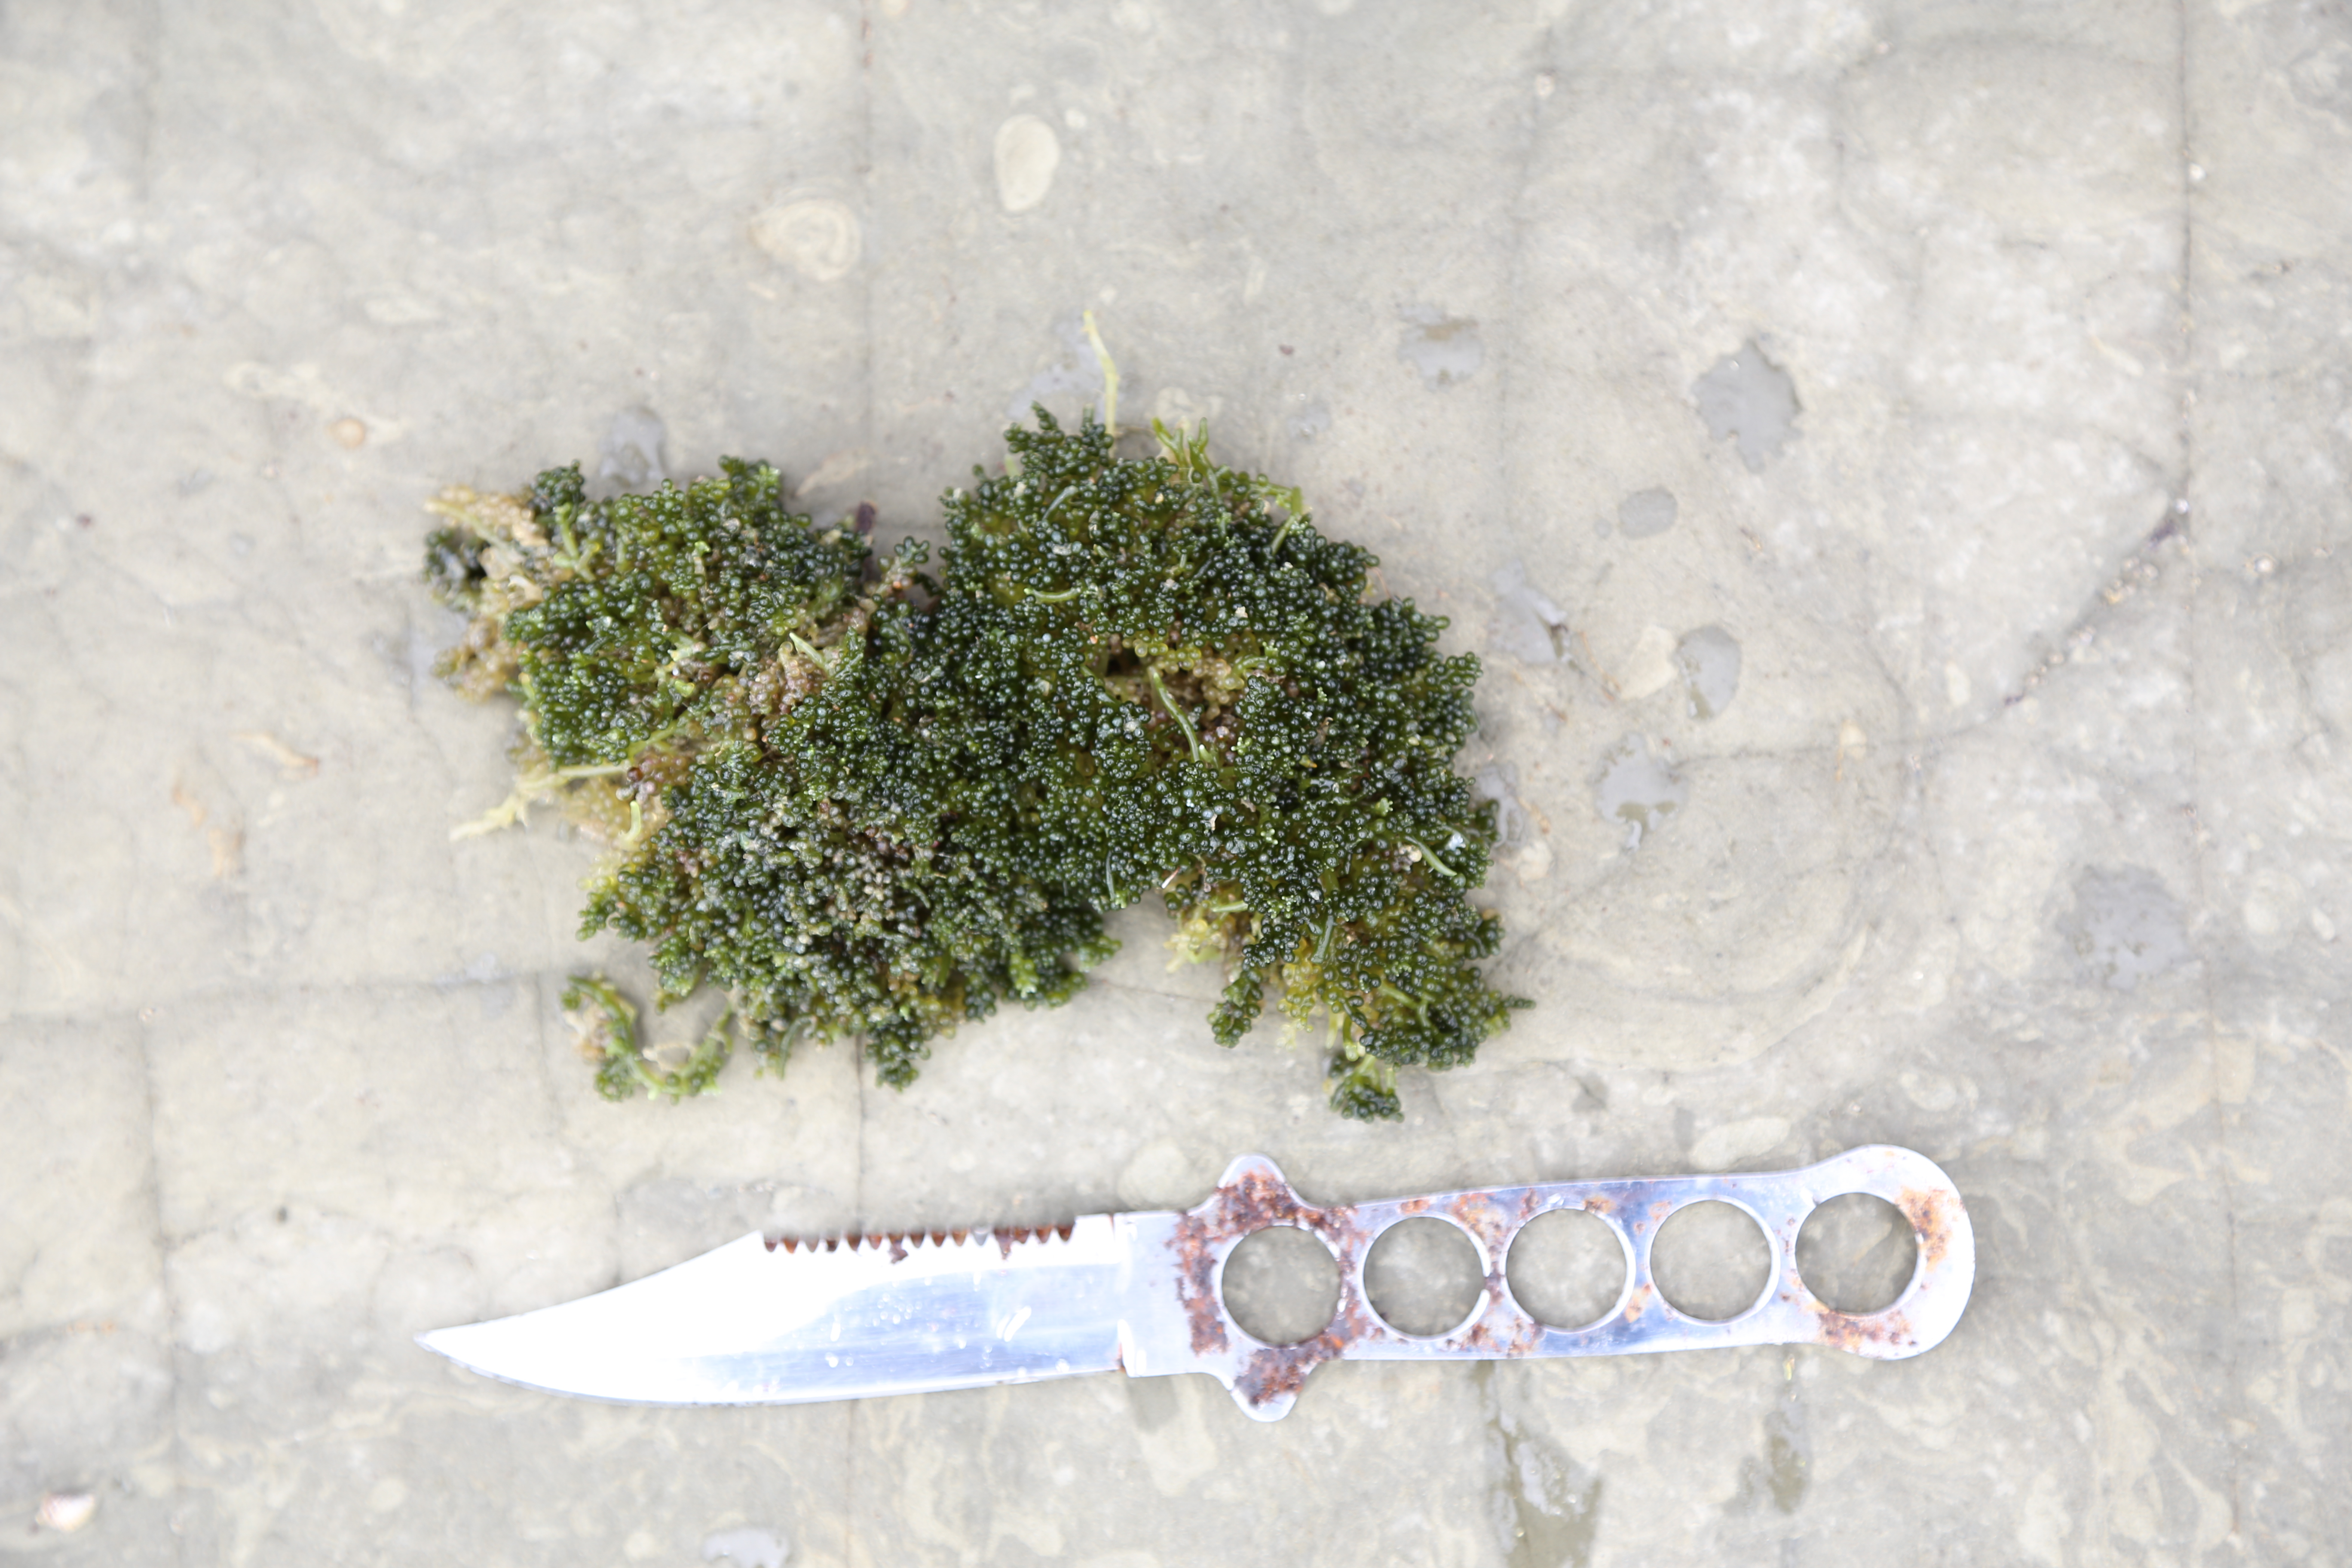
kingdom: Plantae
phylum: Chlorophyta
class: Ulvophyceae
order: Bryopsidales
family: Caulerpaceae
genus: Caulerpa
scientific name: Caulerpa geminata
